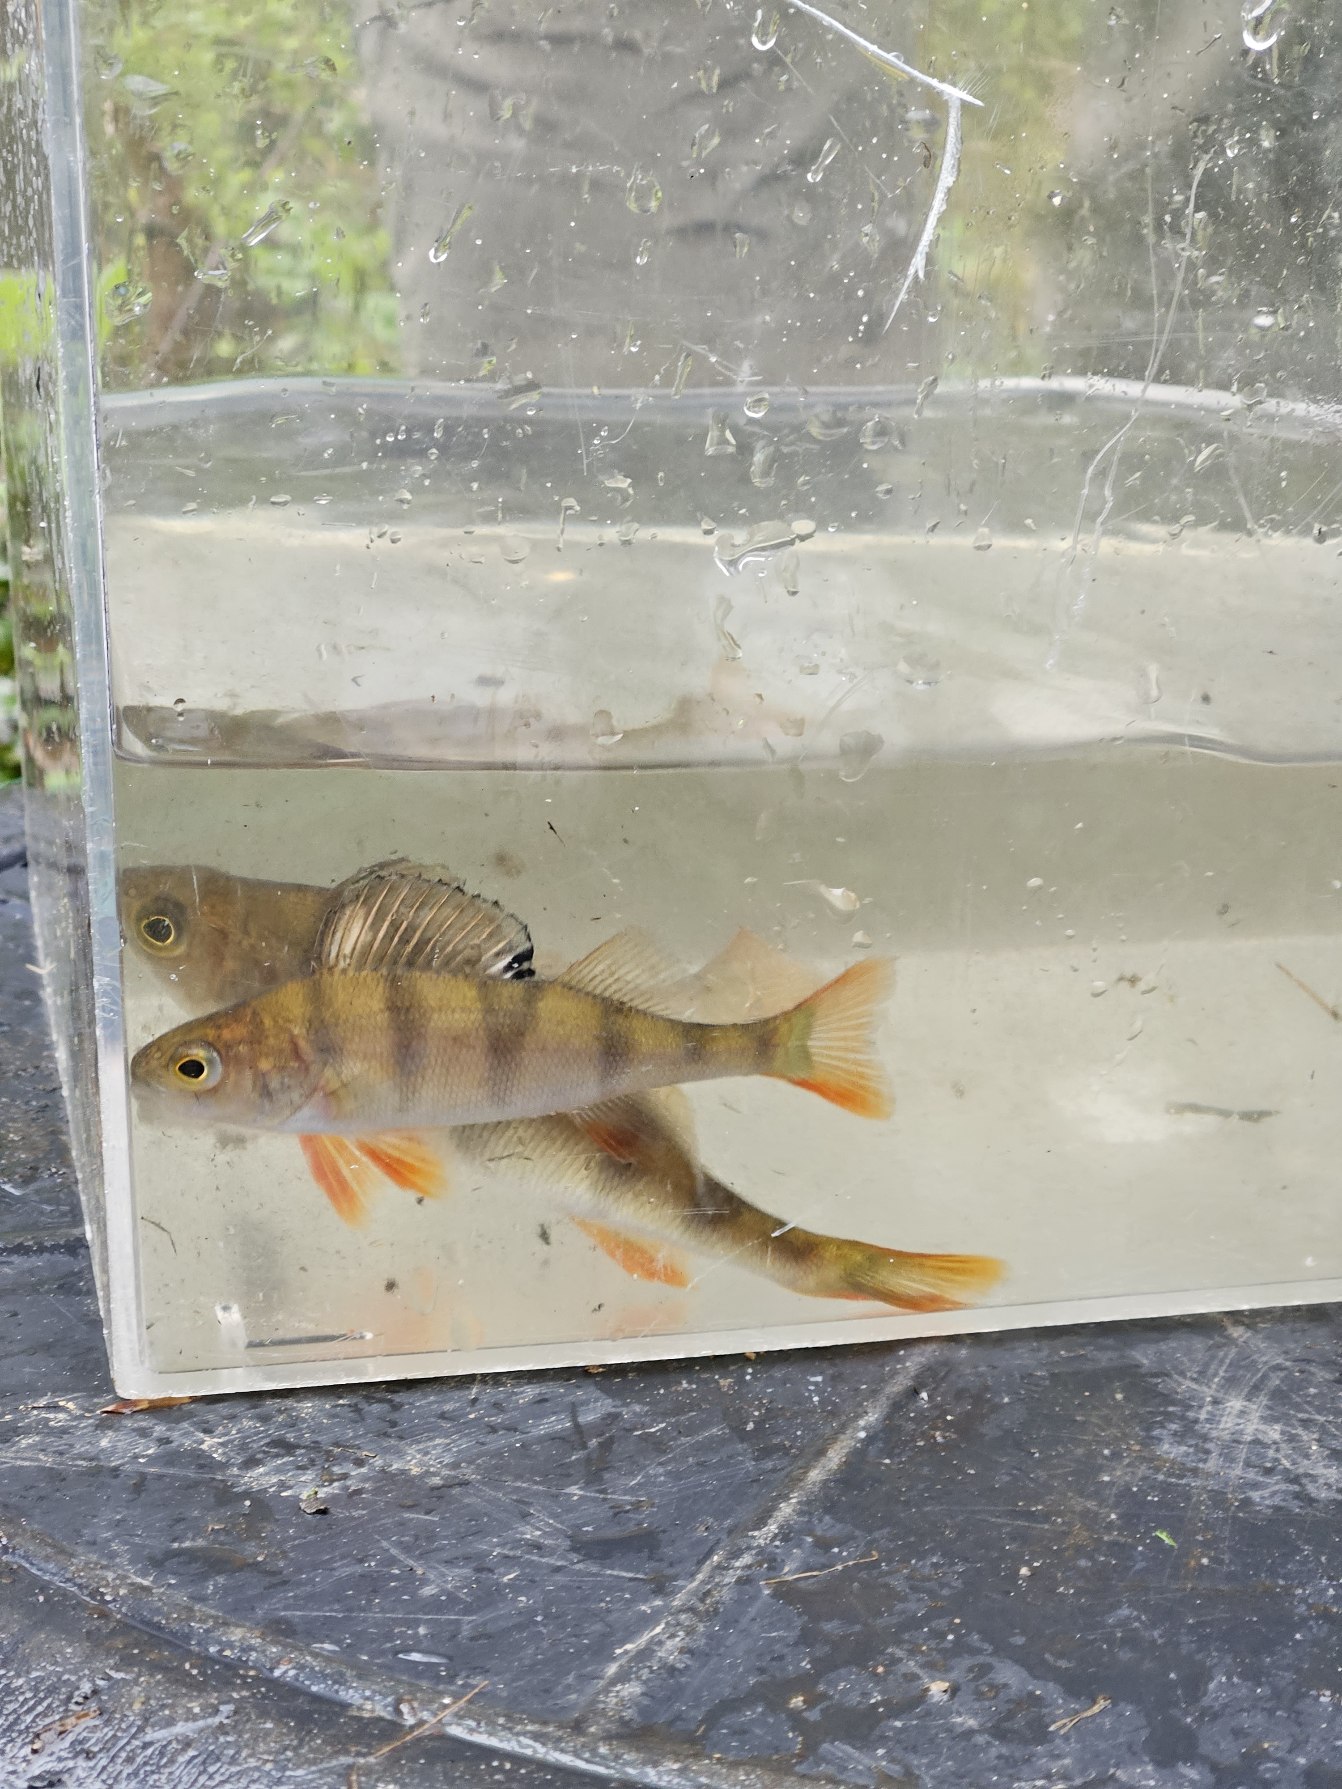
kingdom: Animalia
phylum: Chordata
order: Perciformes
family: Percidae
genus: Perca
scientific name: Perca fluviatilis
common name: Aborre
